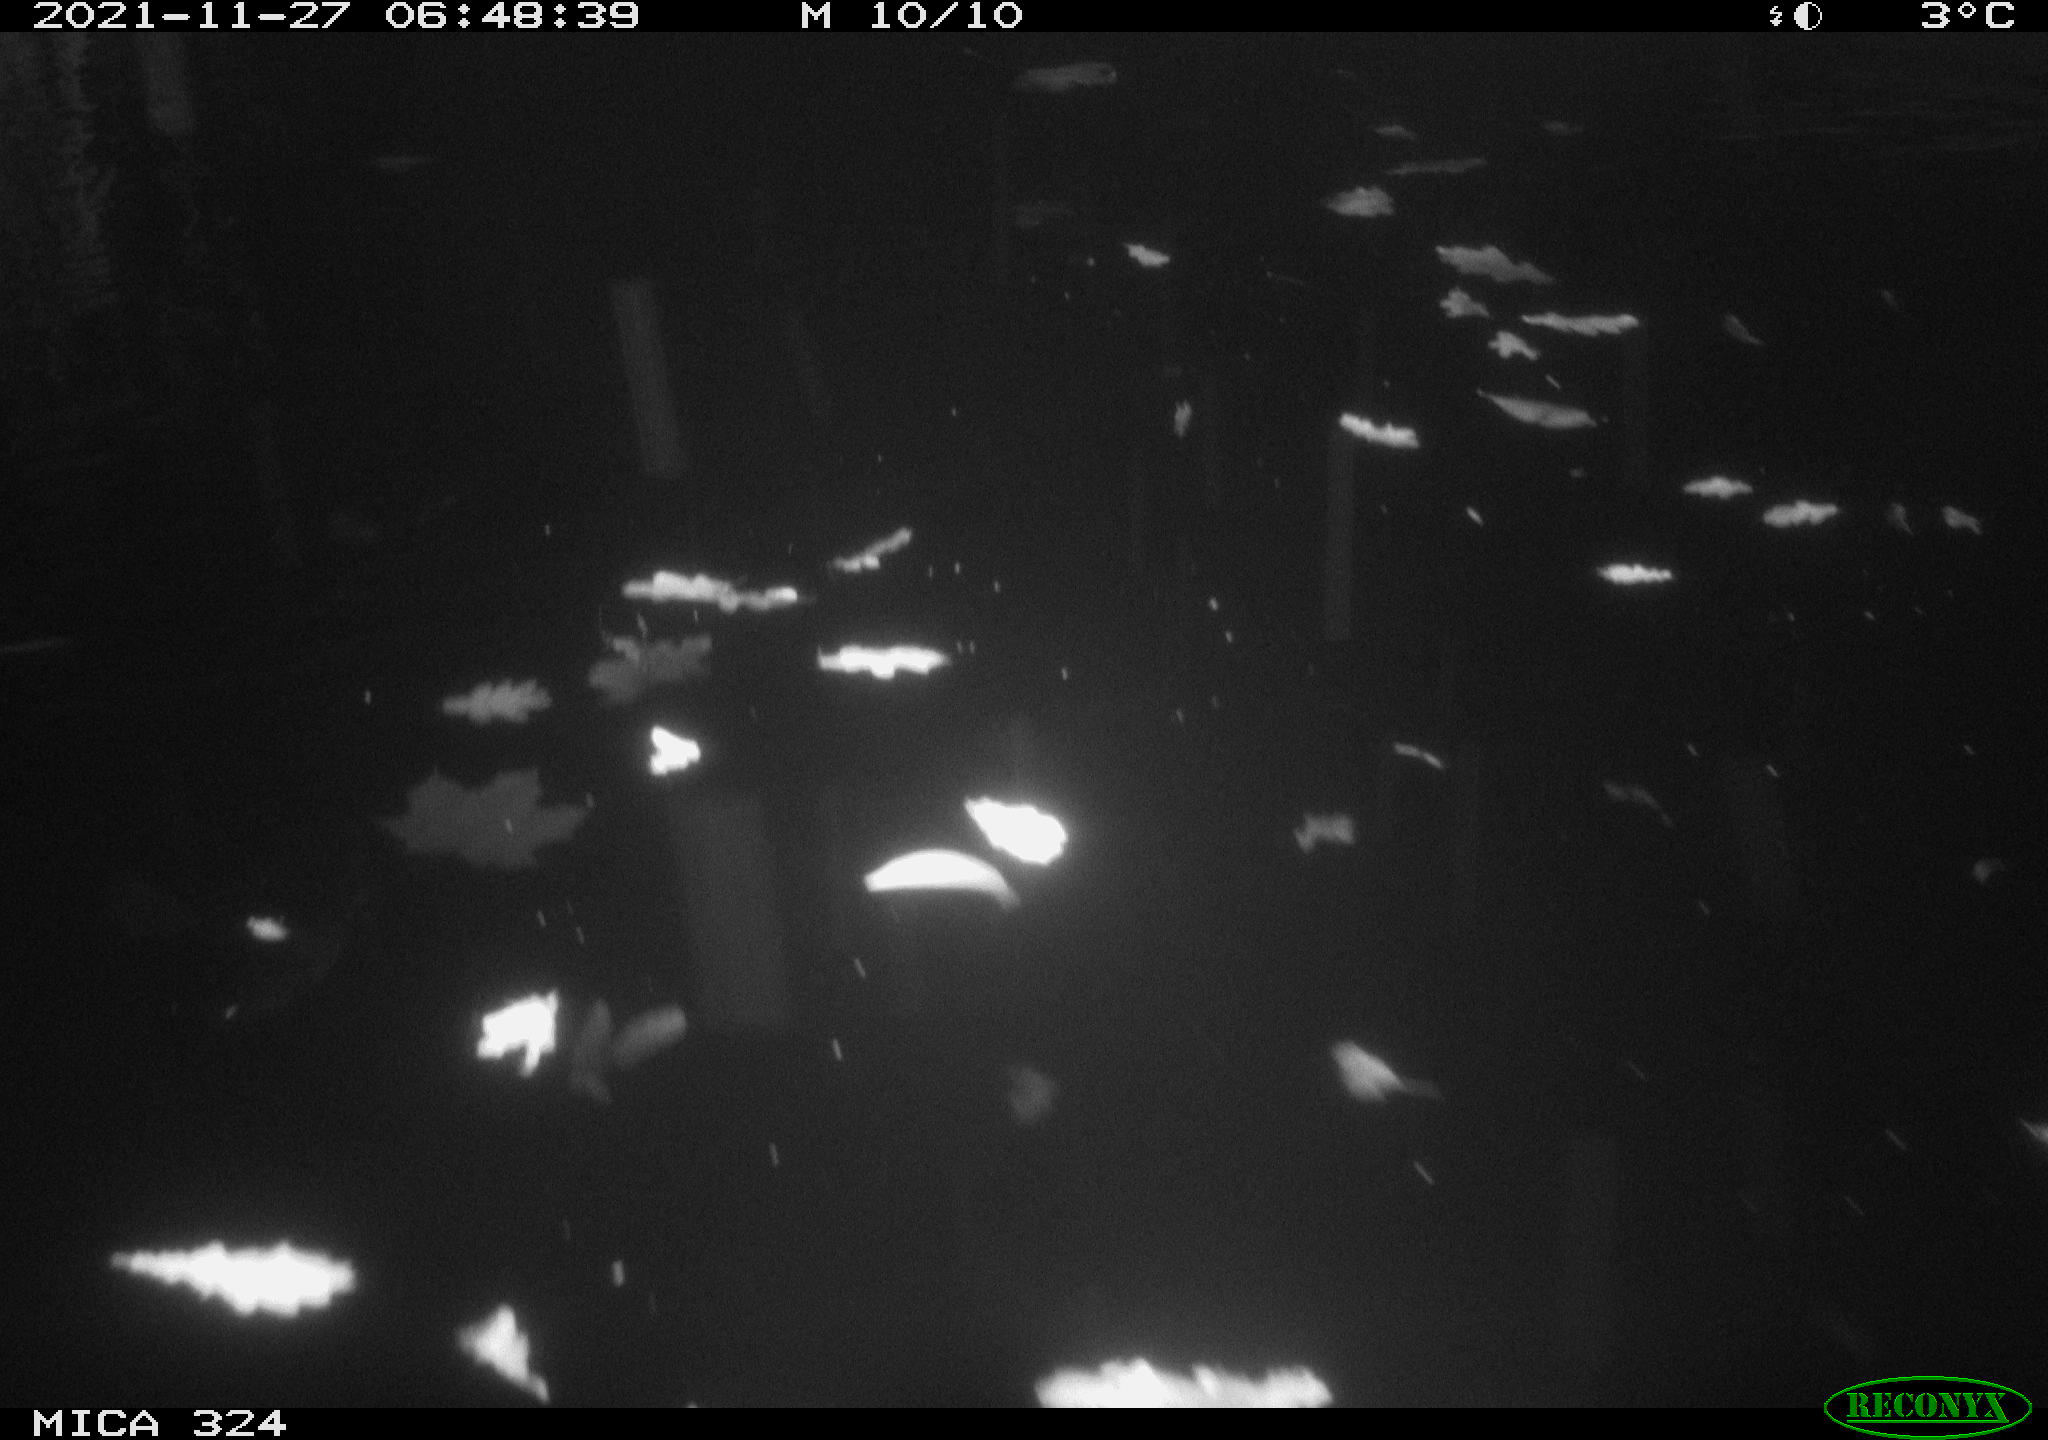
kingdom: Animalia
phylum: Chordata
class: Mammalia
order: Rodentia
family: Cricetidae
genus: Ondatra
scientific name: Ondatra zibethicus
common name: Muskrat
